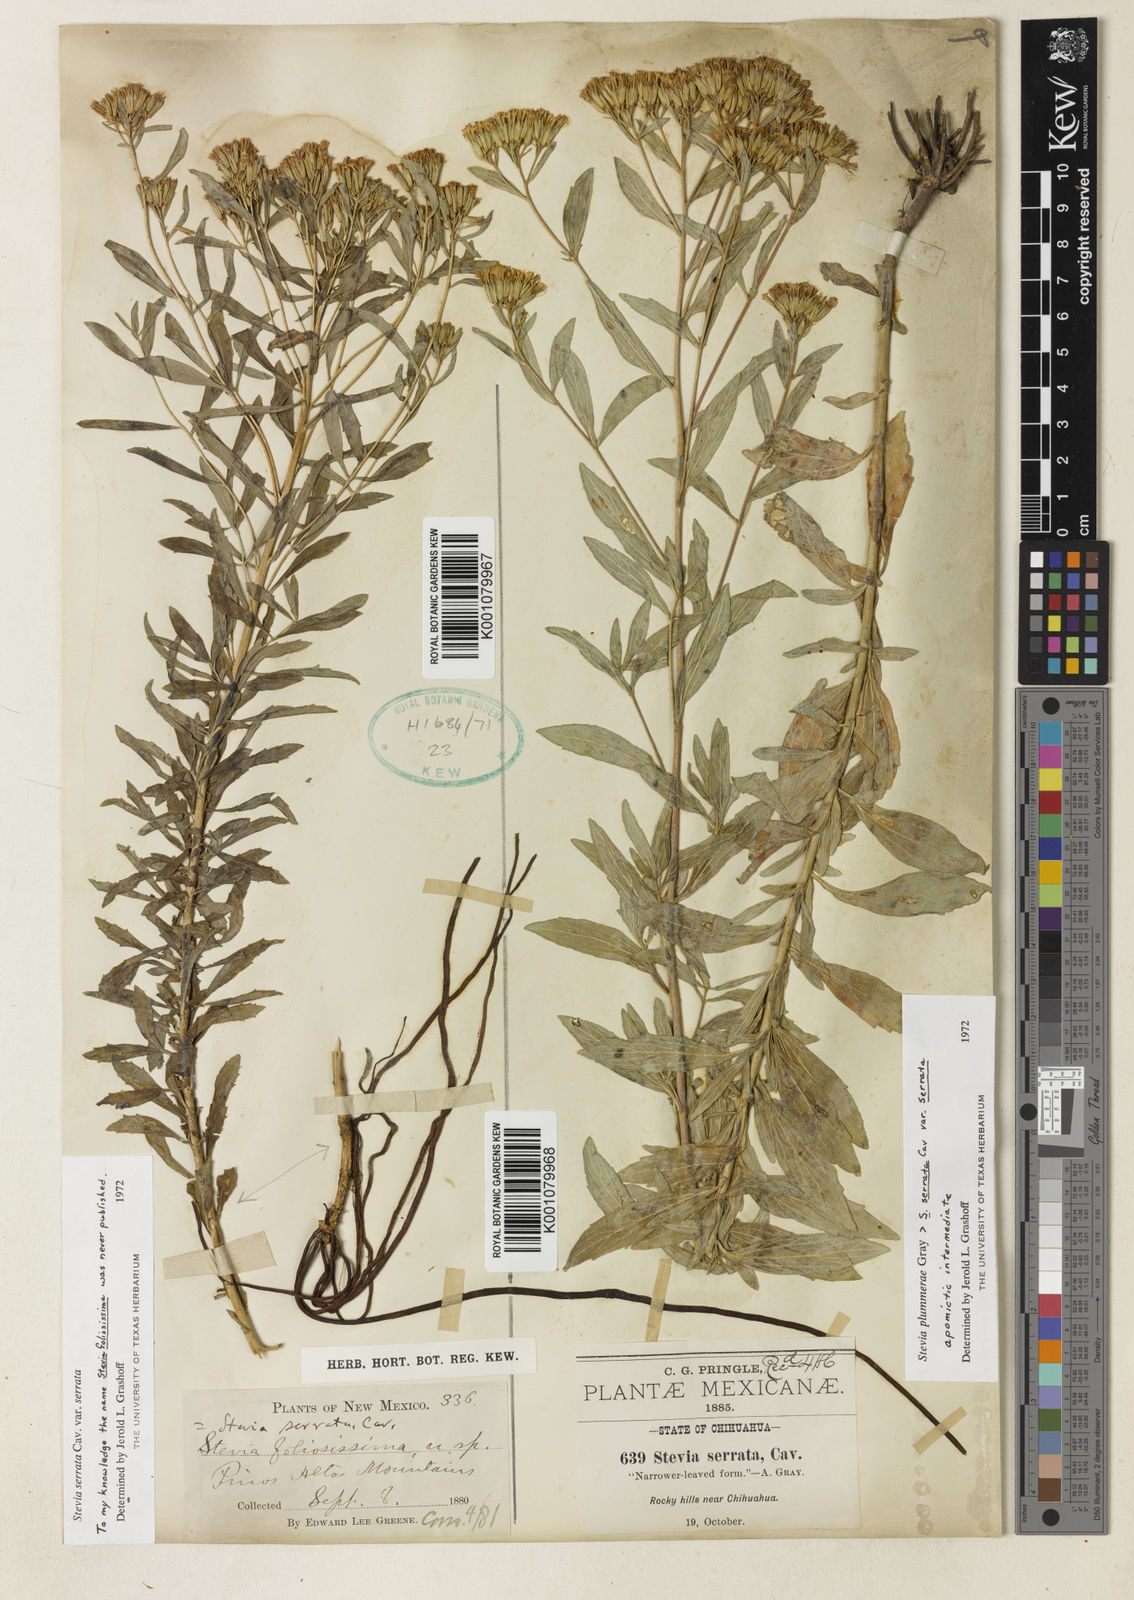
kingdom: Plantae
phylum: Tracheophyta
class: Magnoliopsida
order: Asterales
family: Asteraceae
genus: Stevia
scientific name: Stevia
